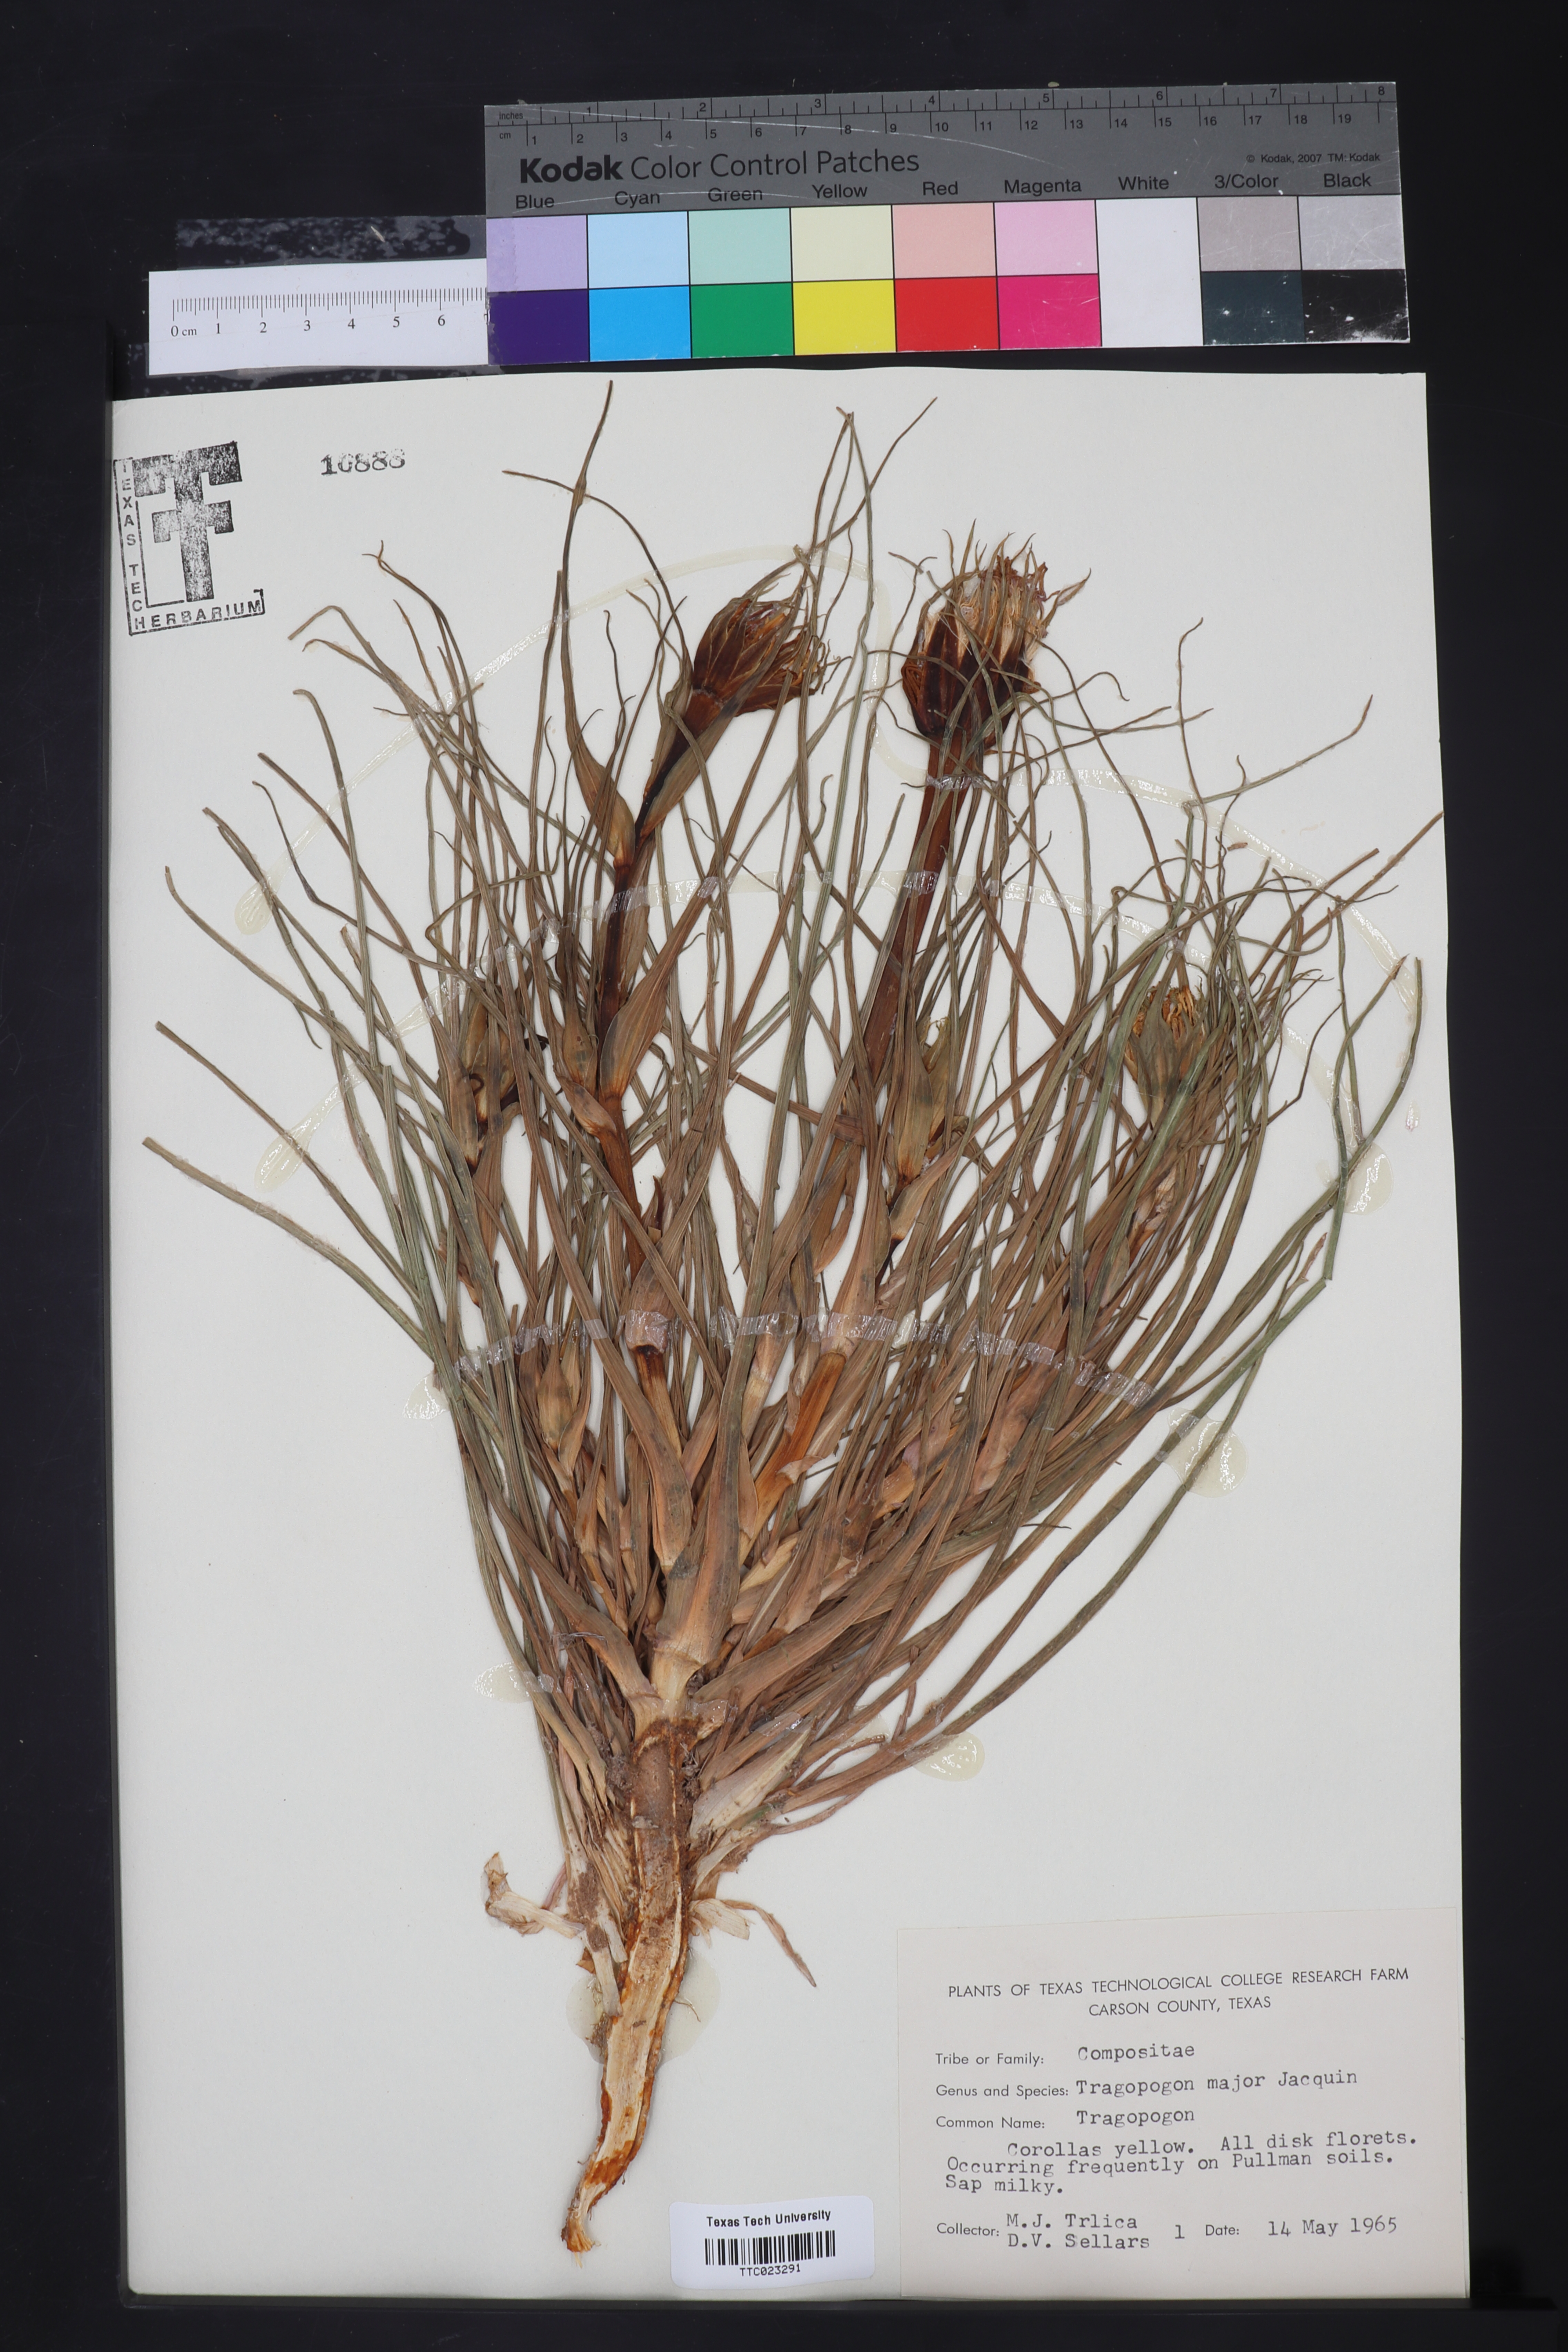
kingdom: Plantae
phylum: Tracheophyta
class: Magnoliopsida
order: Asterales
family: Asteraceae
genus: Tragopogon
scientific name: Tragopogon dubius
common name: Yellow salsify
